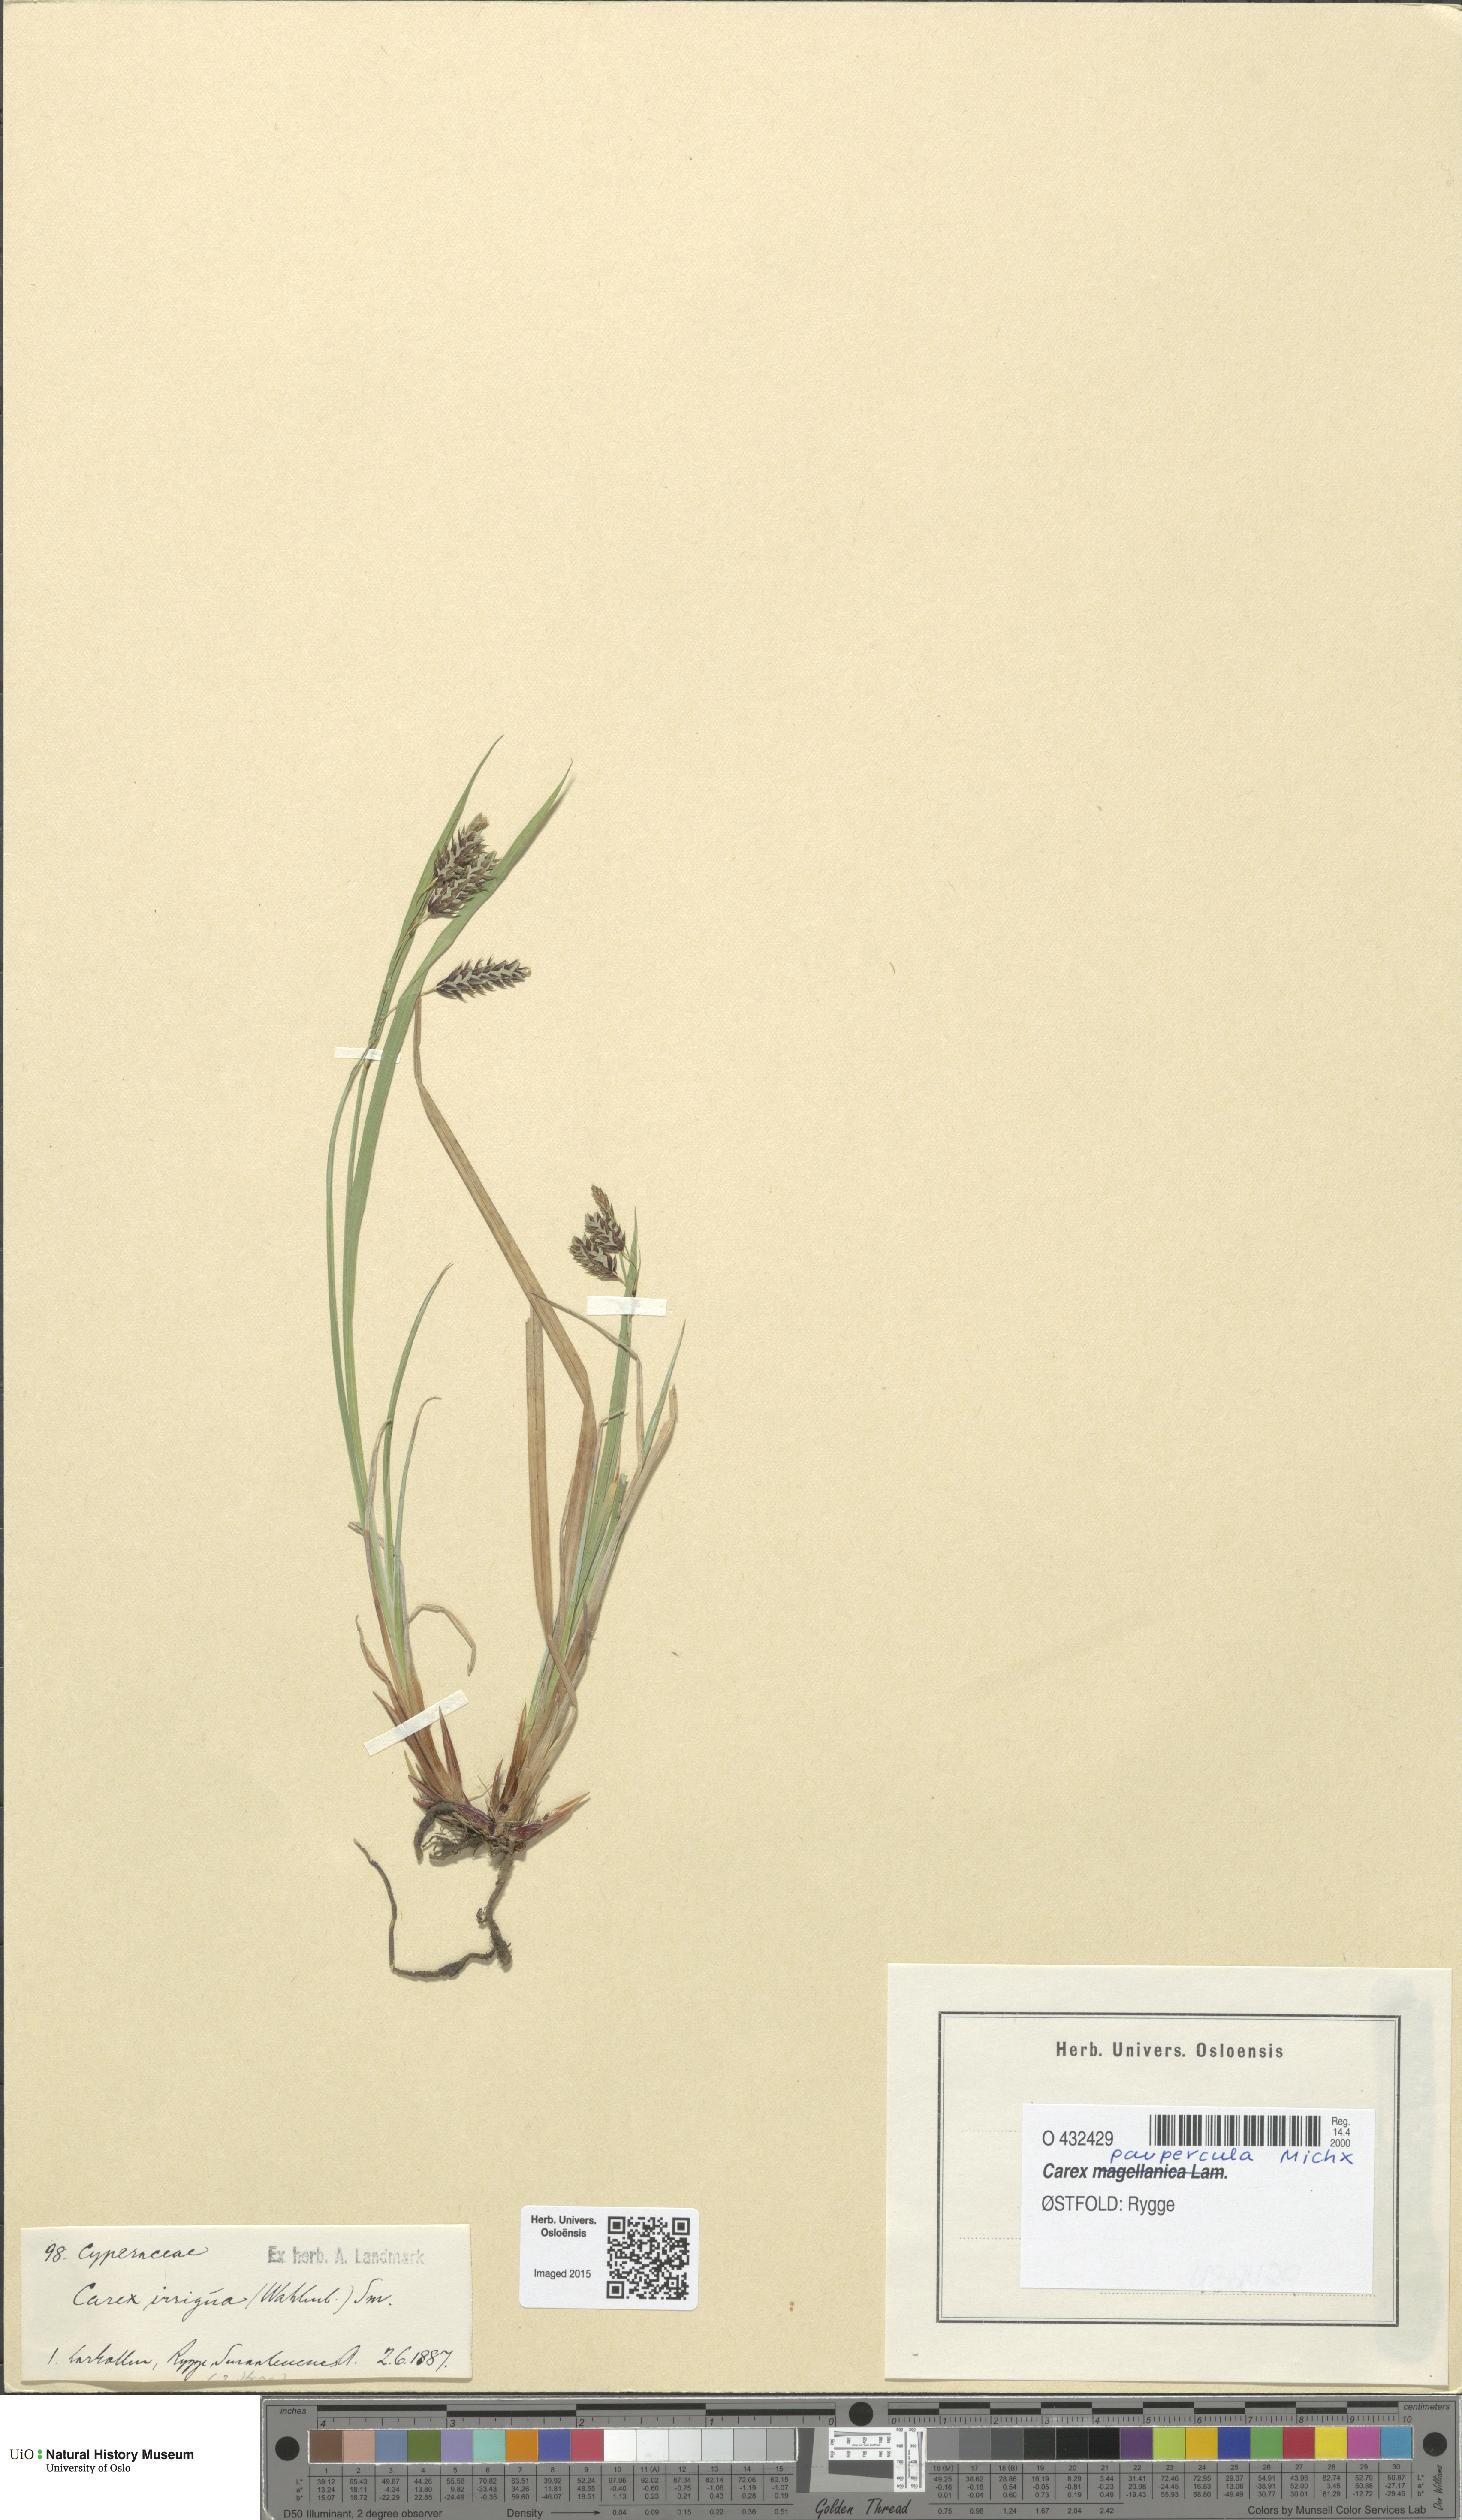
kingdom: Plantae
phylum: Tracheophyta
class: Liliopsida
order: Poales
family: Cyperaceae
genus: Carex
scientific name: Carex magellanica
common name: Bog sedge
